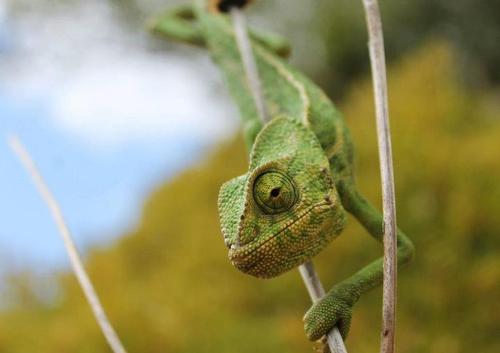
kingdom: Animalia
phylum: Chordata
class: Squamata
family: Chamaeleonidae
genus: Chamaeleo
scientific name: Chamaeleo chamaeleon
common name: Mediterranean chameleon
